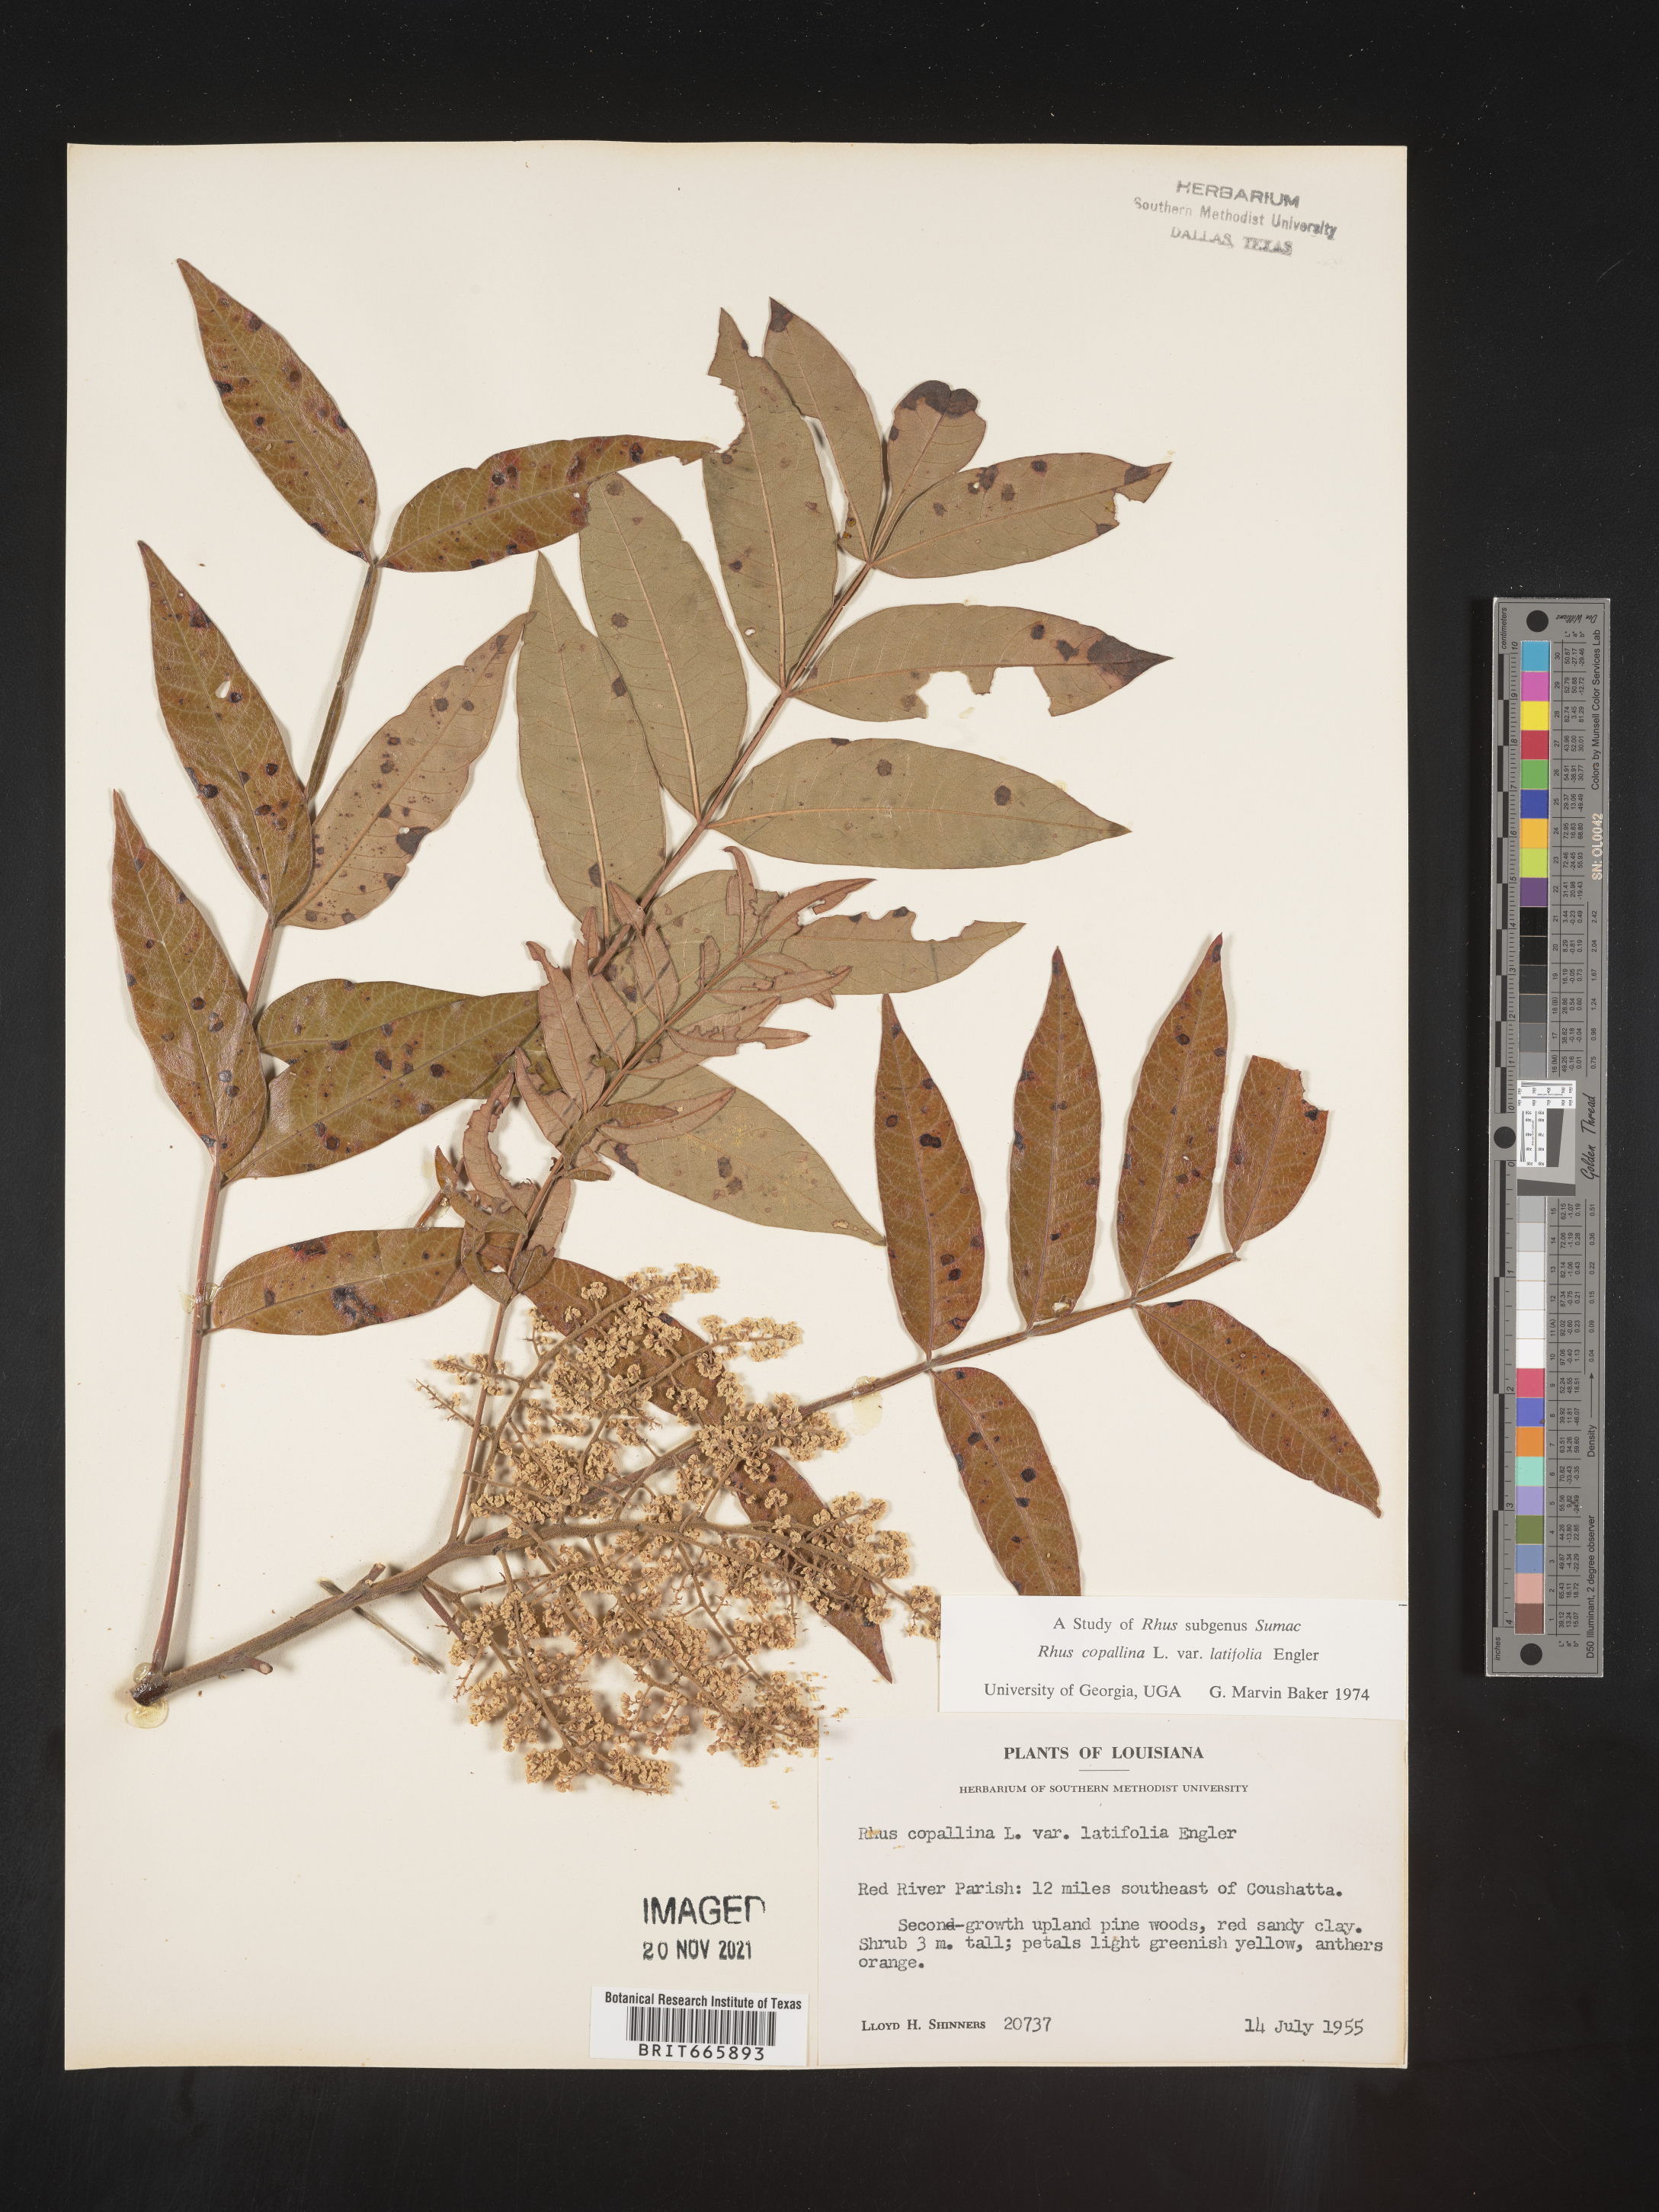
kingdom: Plantae
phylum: Tracheophyta
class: Magnoliopsida
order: Sapindales
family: Anacardiaceae
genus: Rhus
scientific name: Rhus copallina
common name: Shining sumac
